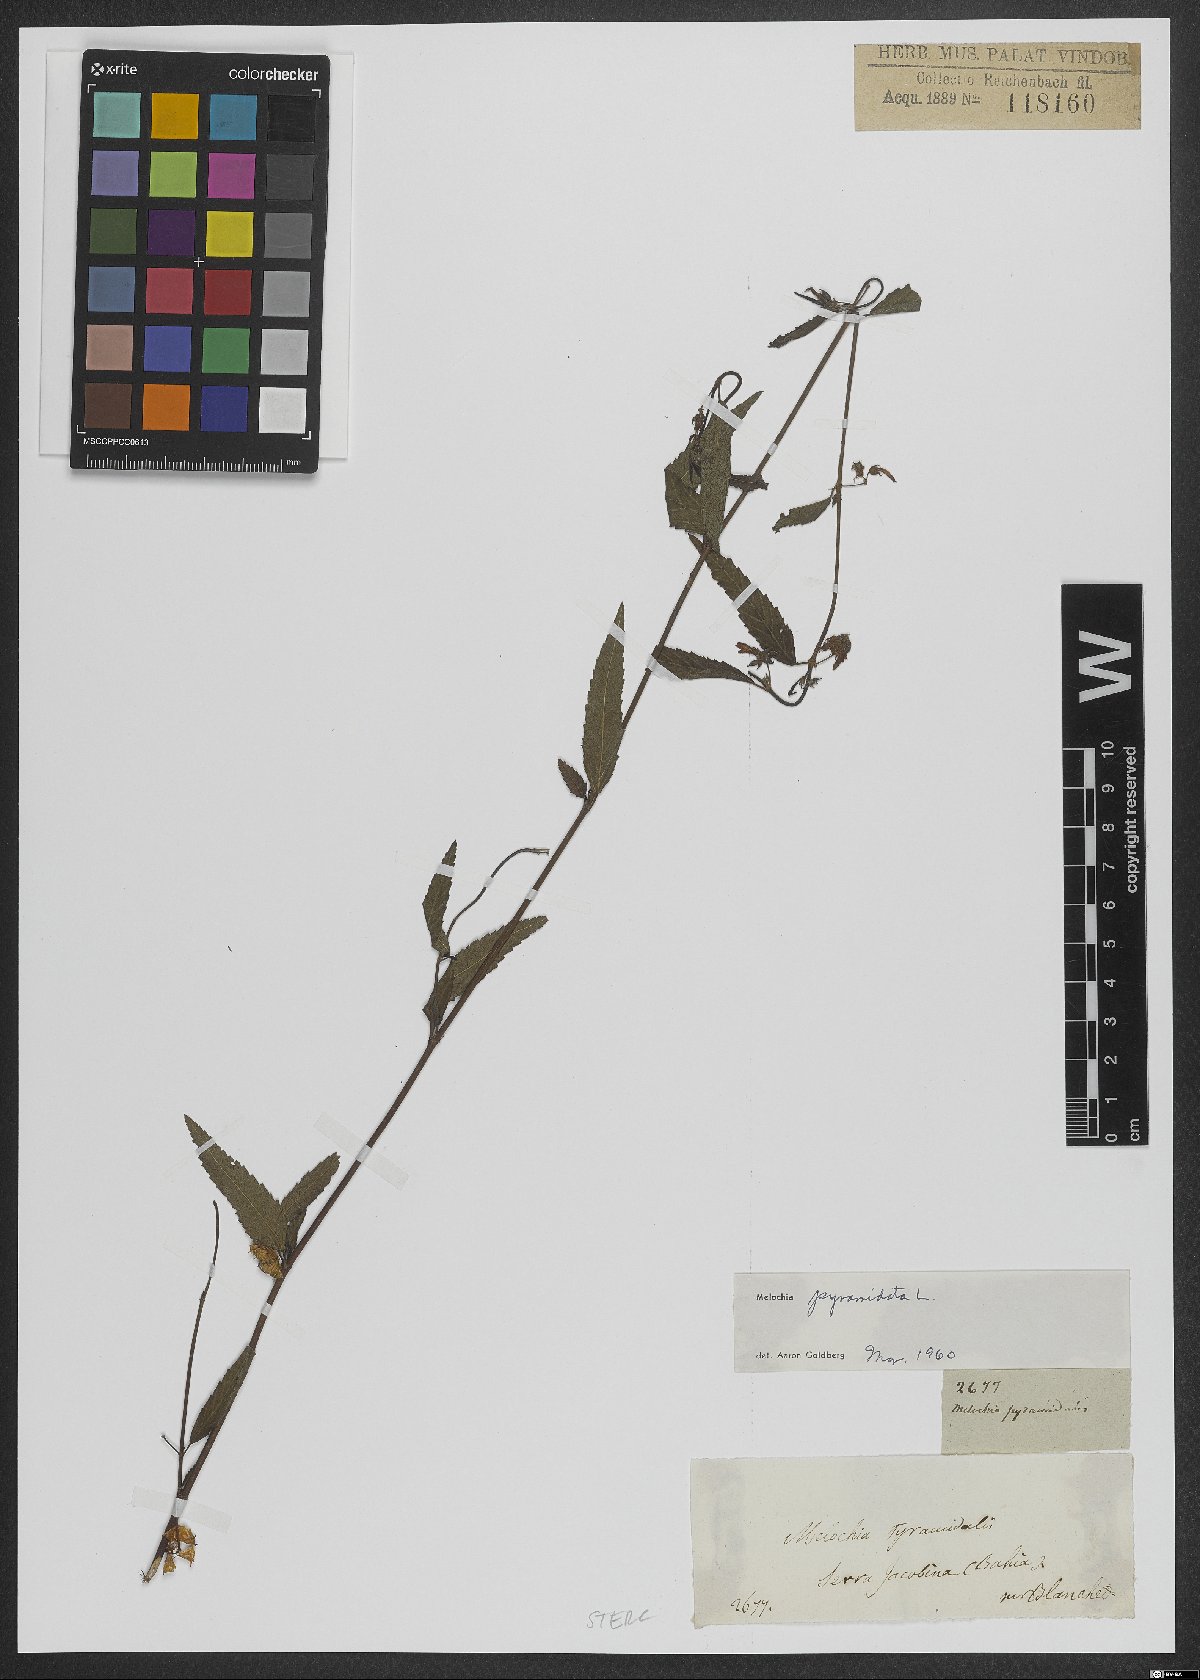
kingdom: Plantae
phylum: Tracheophyta
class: Magnoliopsida
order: Malvales
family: Malvaceae
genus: Melochia
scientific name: Melochia pyramidata
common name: Pyramidflower
